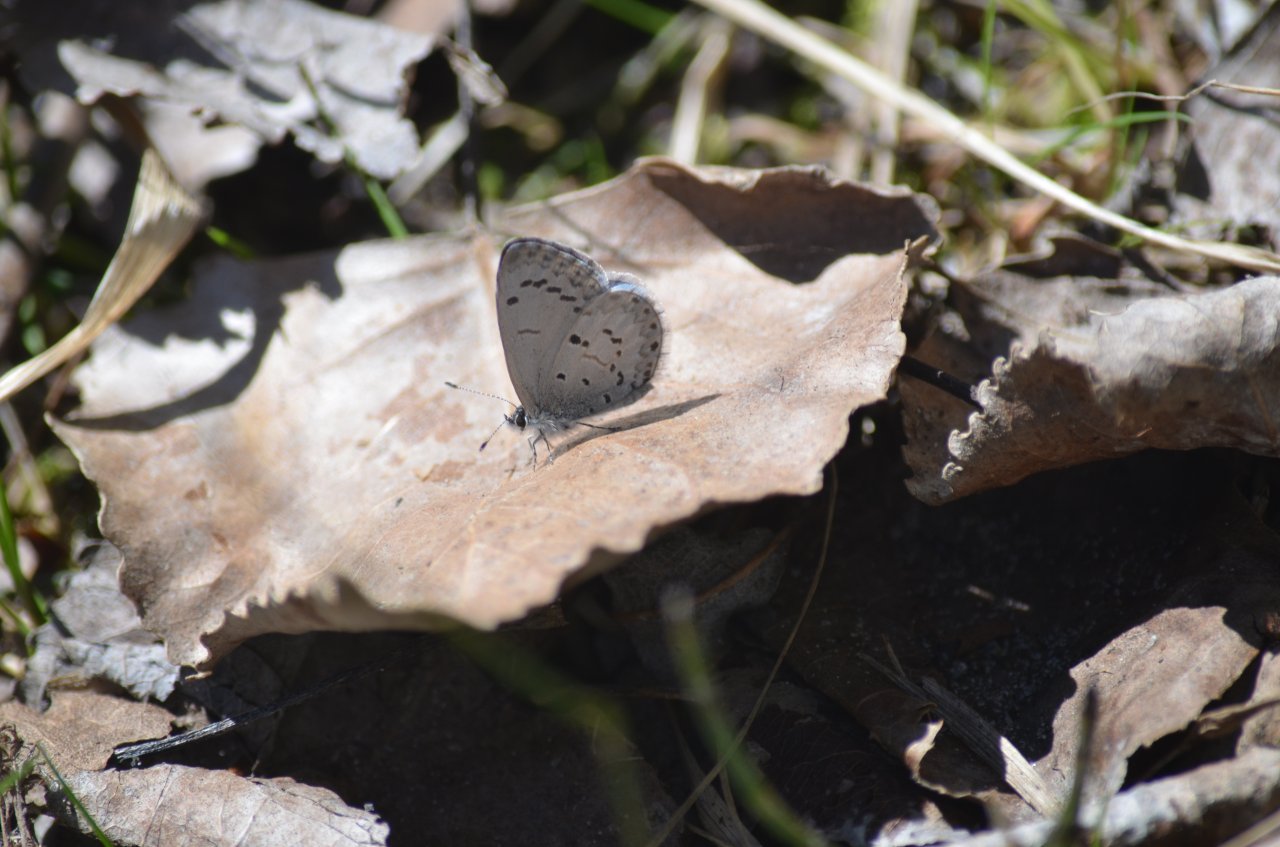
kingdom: Animalia
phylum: Arthropoda
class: Insecta
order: Lepidoptera
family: Lycaenidae
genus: Celastrina
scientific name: Celastrina lucia
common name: Northern Spring Azure
